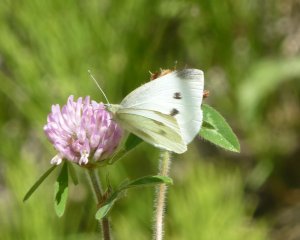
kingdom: Animalia
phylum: Arthropoda
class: Insecta
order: Lepidoptera
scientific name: Lepidoptera
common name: Butterflies
